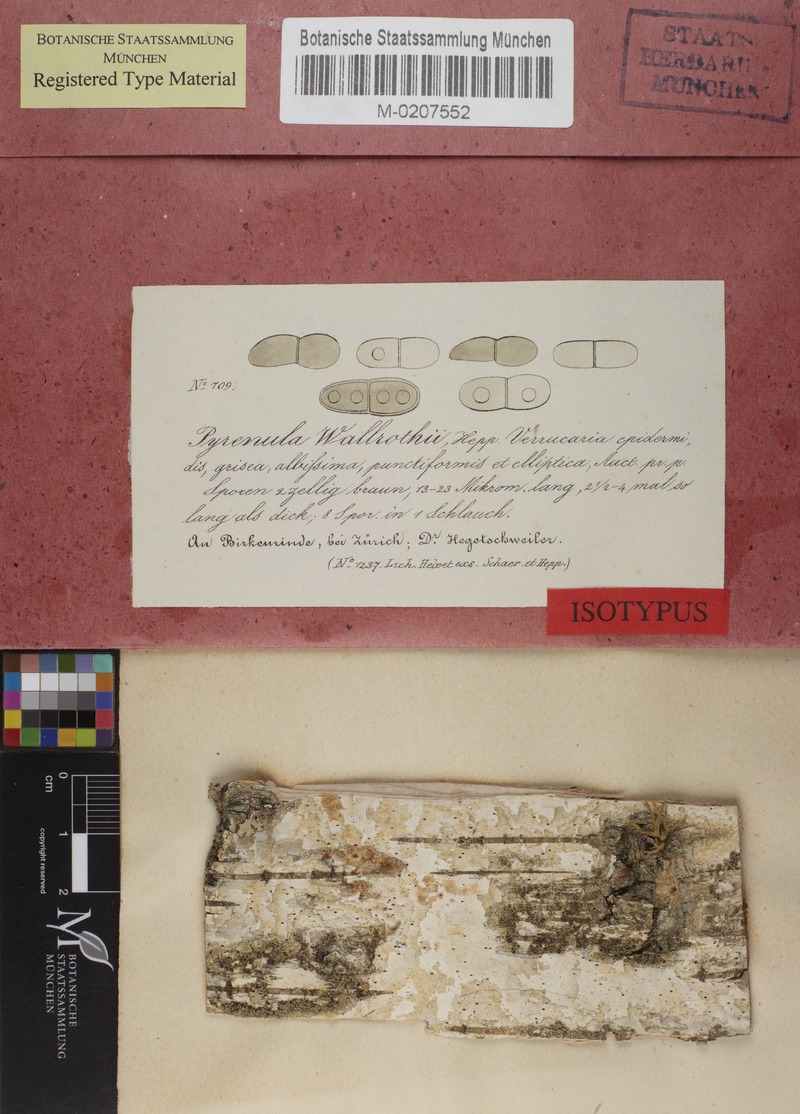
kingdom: Fungi
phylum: Ascomycota
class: Dothideomycetes
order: Trypetheliales
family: Trypetheliaceae
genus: Mycomicrothelia
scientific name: Mycomicrothelia wallrothii
